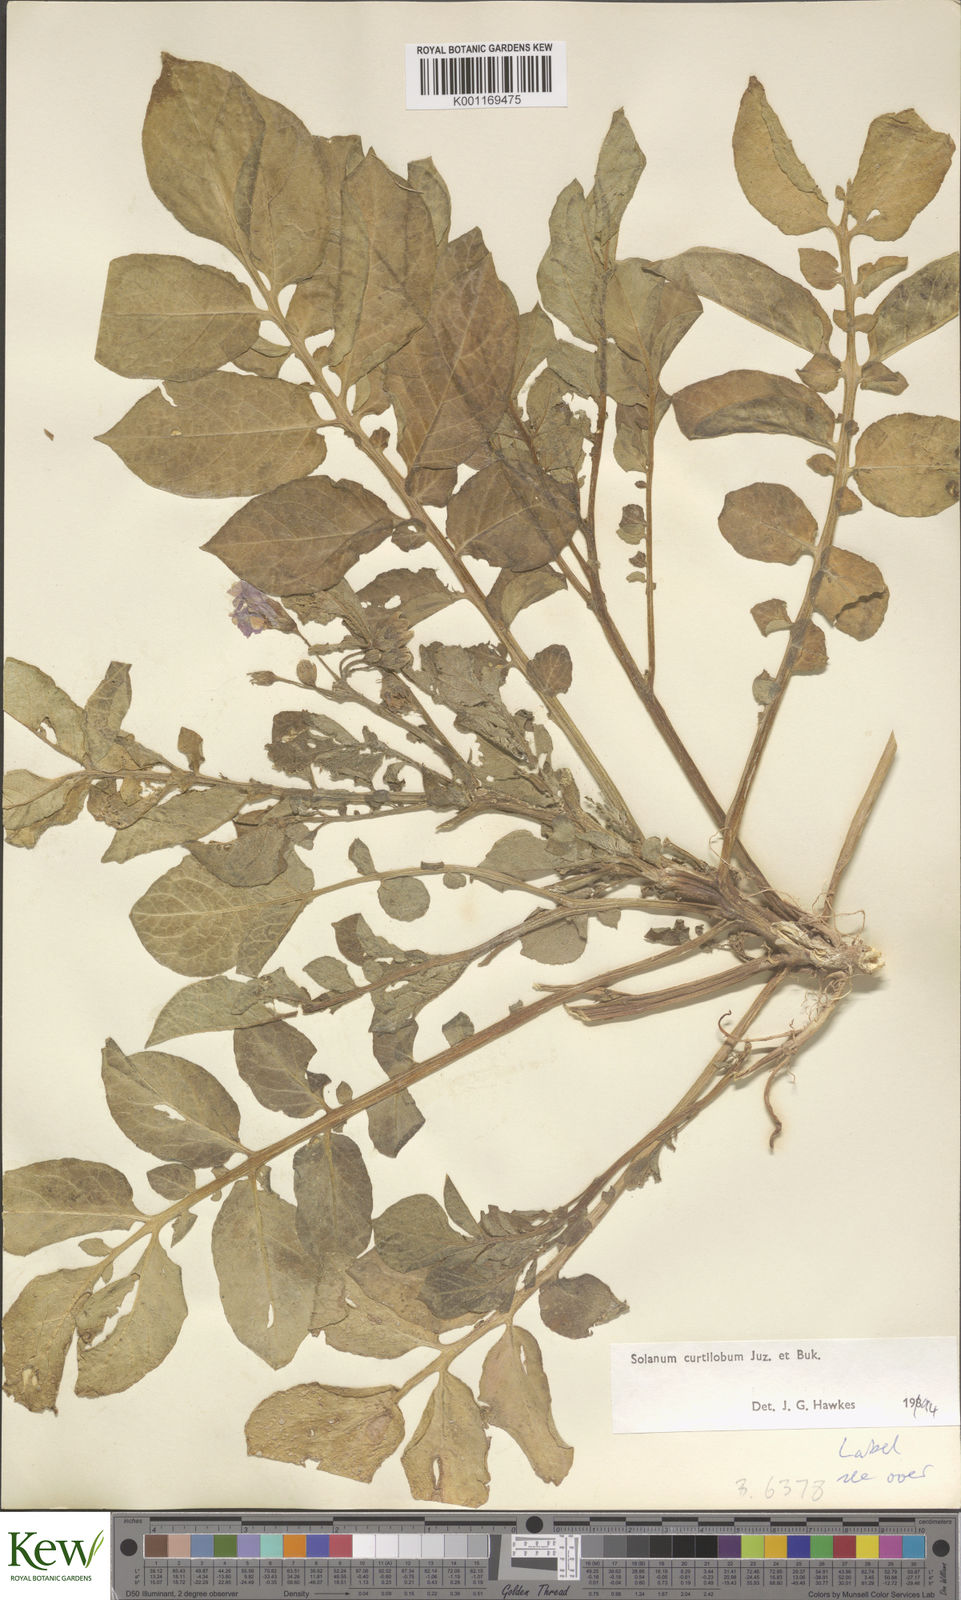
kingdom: Plantae
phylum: Tracheophyta
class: Magnoliopsida
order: Solanales
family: Solanaceae
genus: Solanum
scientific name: Solanum curtilobum
